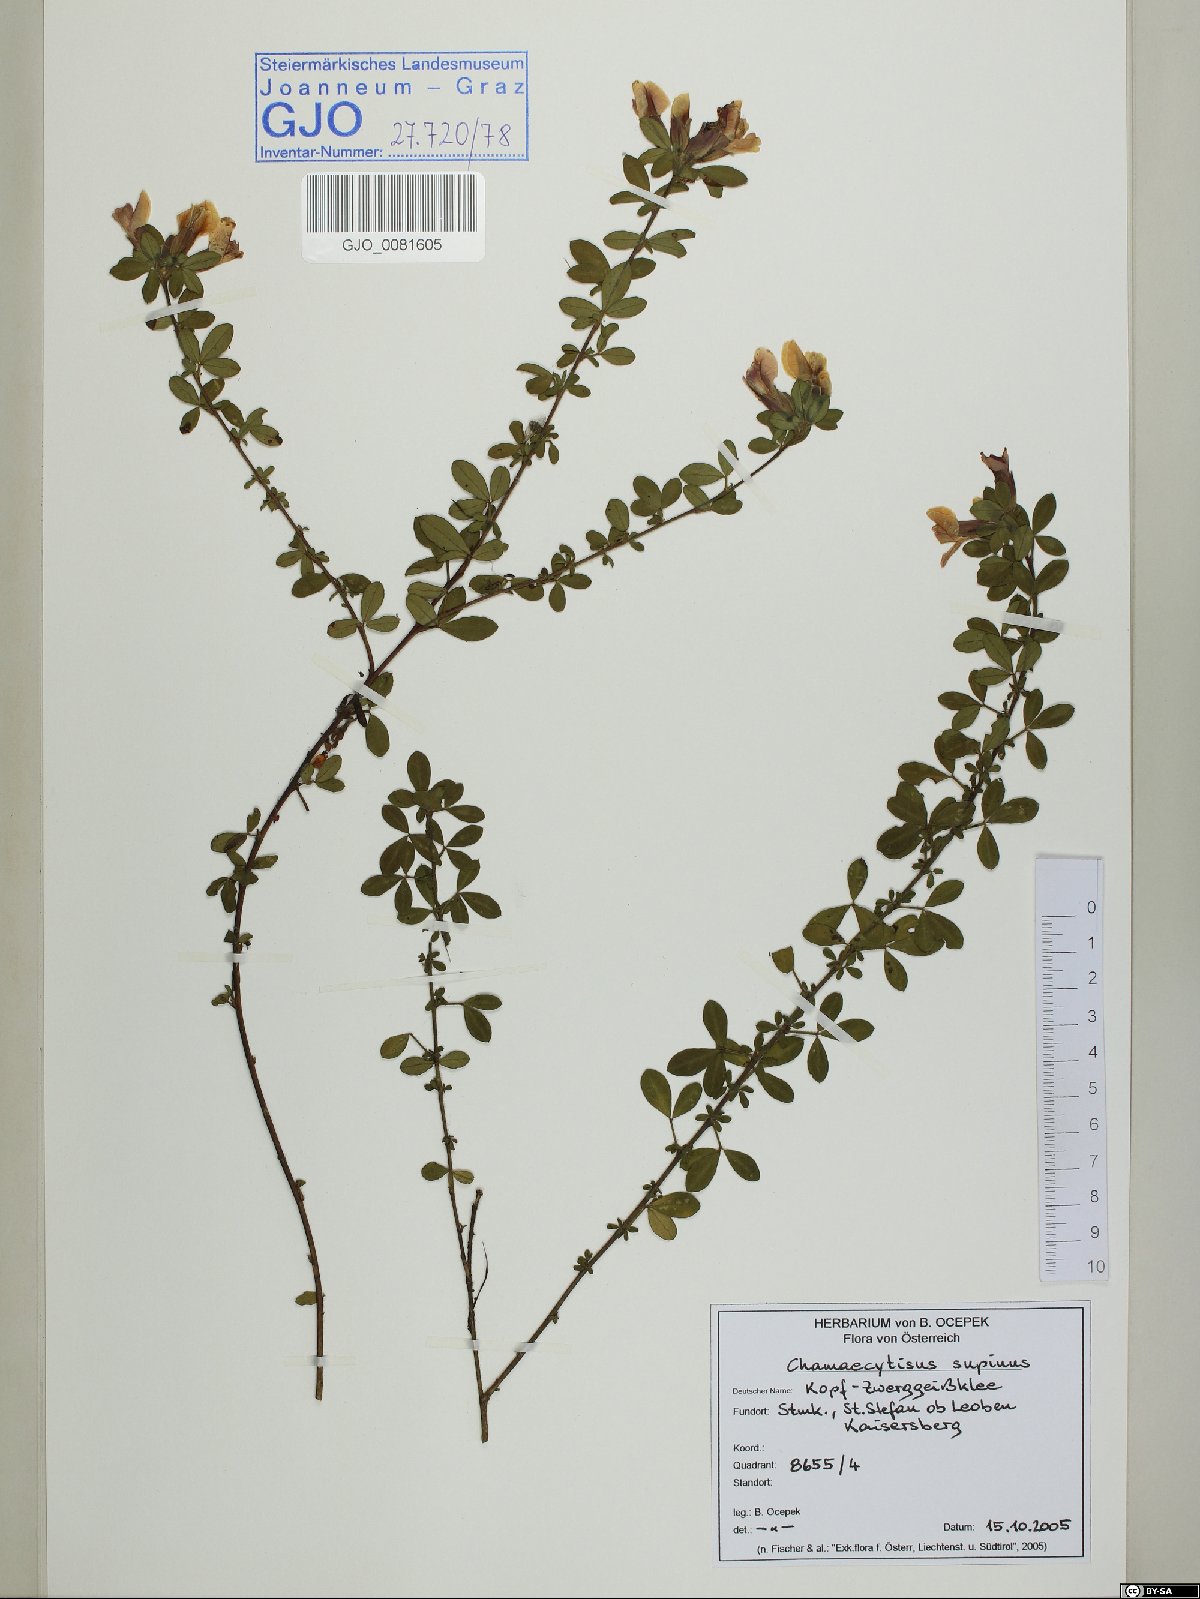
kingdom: Plantae
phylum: Tracheophyta
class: Magnoliopsida
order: Fabales
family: Fabaceae
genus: Chamaecytisus
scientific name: Chamaecytisus supinus
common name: Clustered broom
